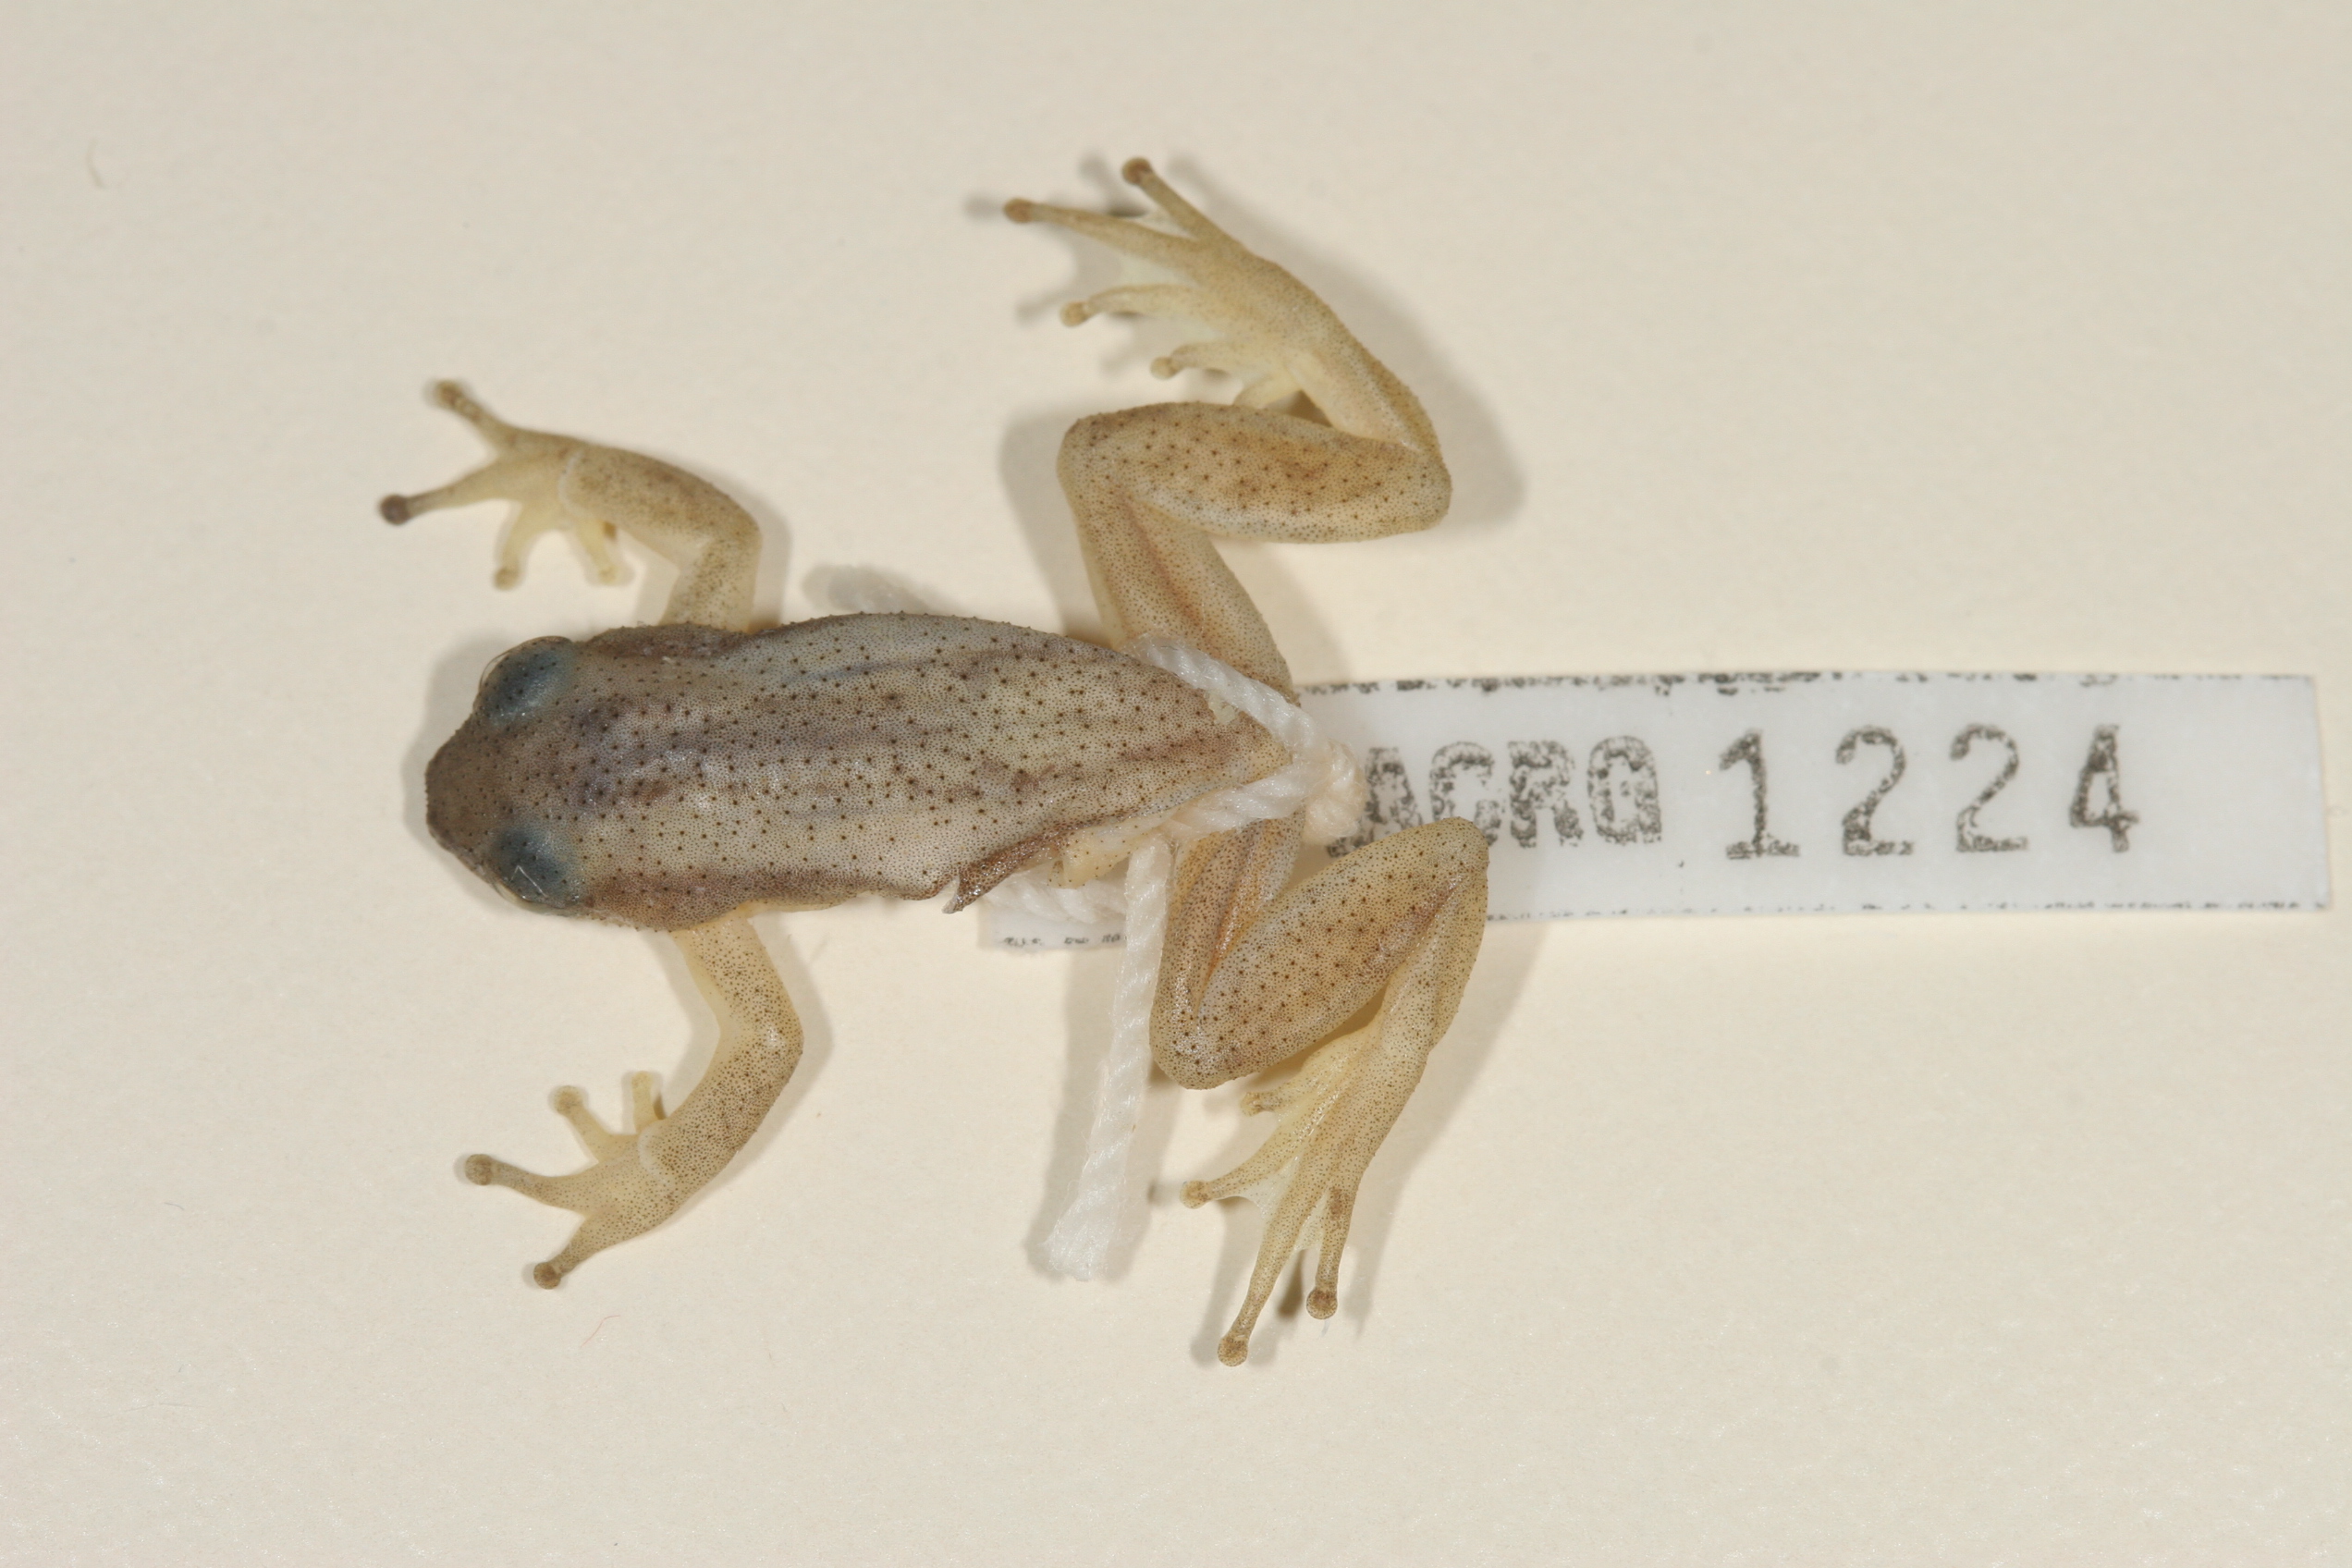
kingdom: Animalia
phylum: Chordata
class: Amphibia
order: Anura
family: Hyperoliidae
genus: Afrixalus
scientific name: Afrixalus spinifrons
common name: Natal spiny reed frog
